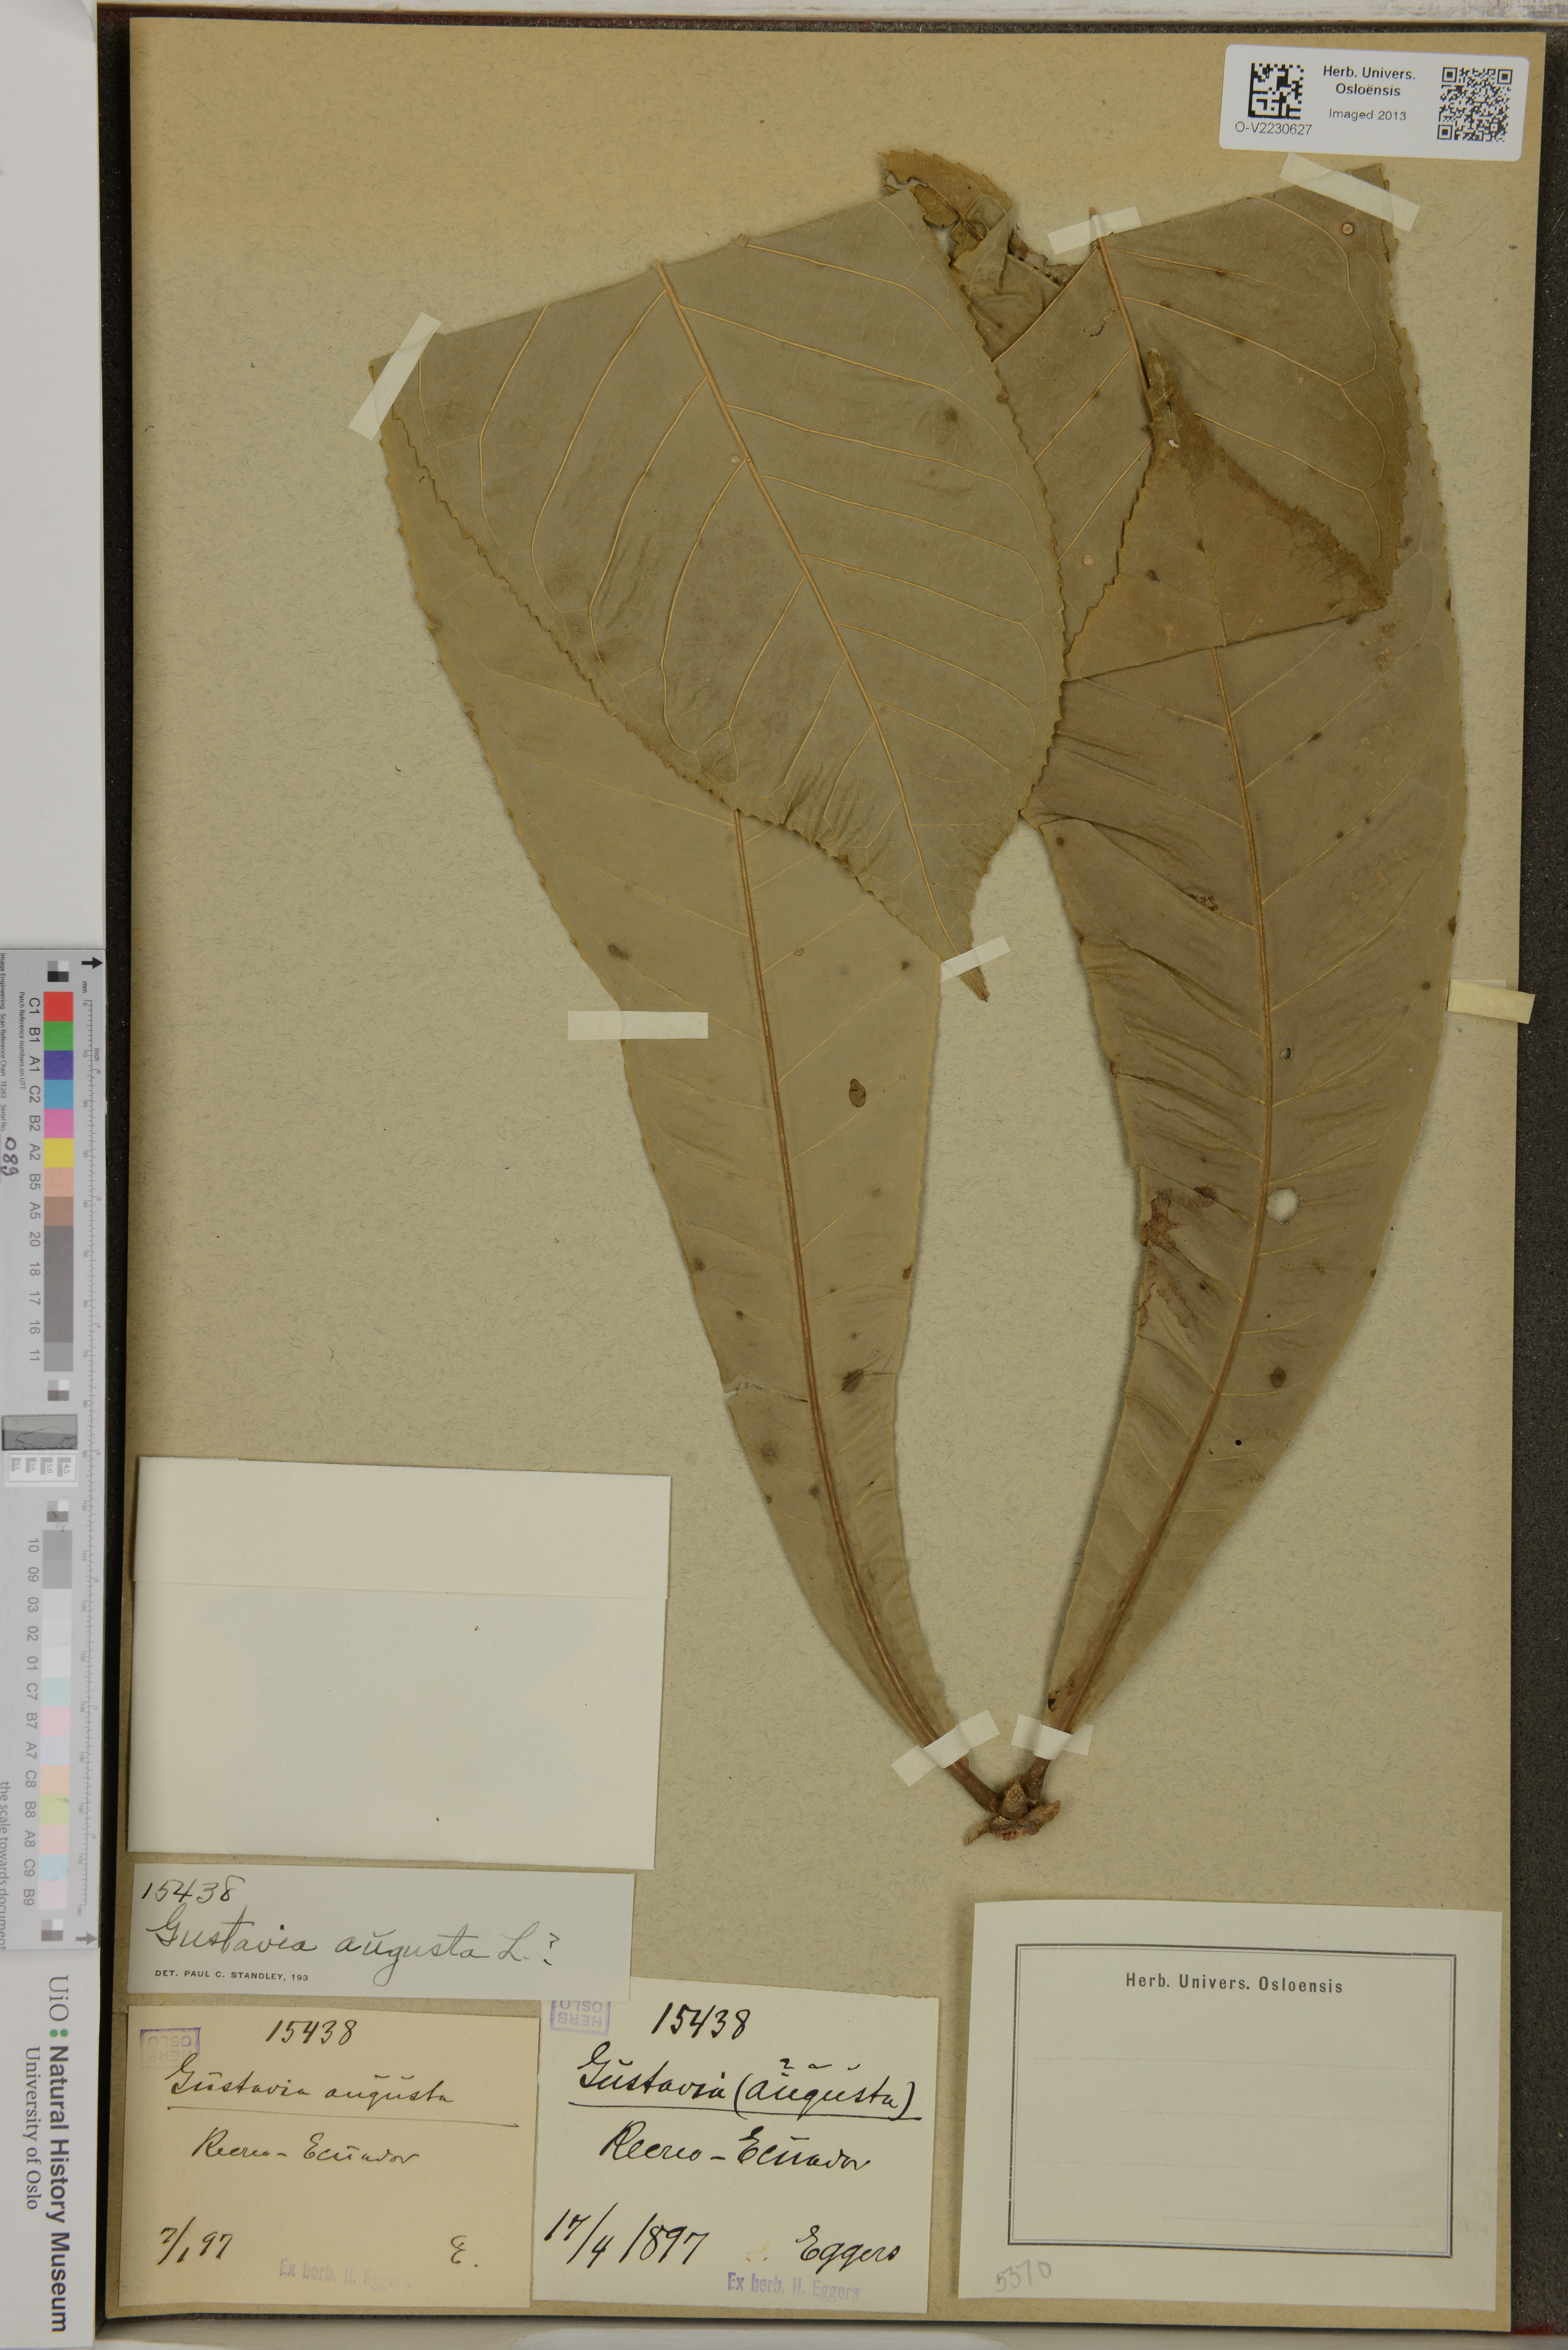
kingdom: Plantae
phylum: Tracheophyta
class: Magnoliopsida
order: Ericales
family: Lecythidaceae
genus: Gustavia
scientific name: Gustavia augusta
